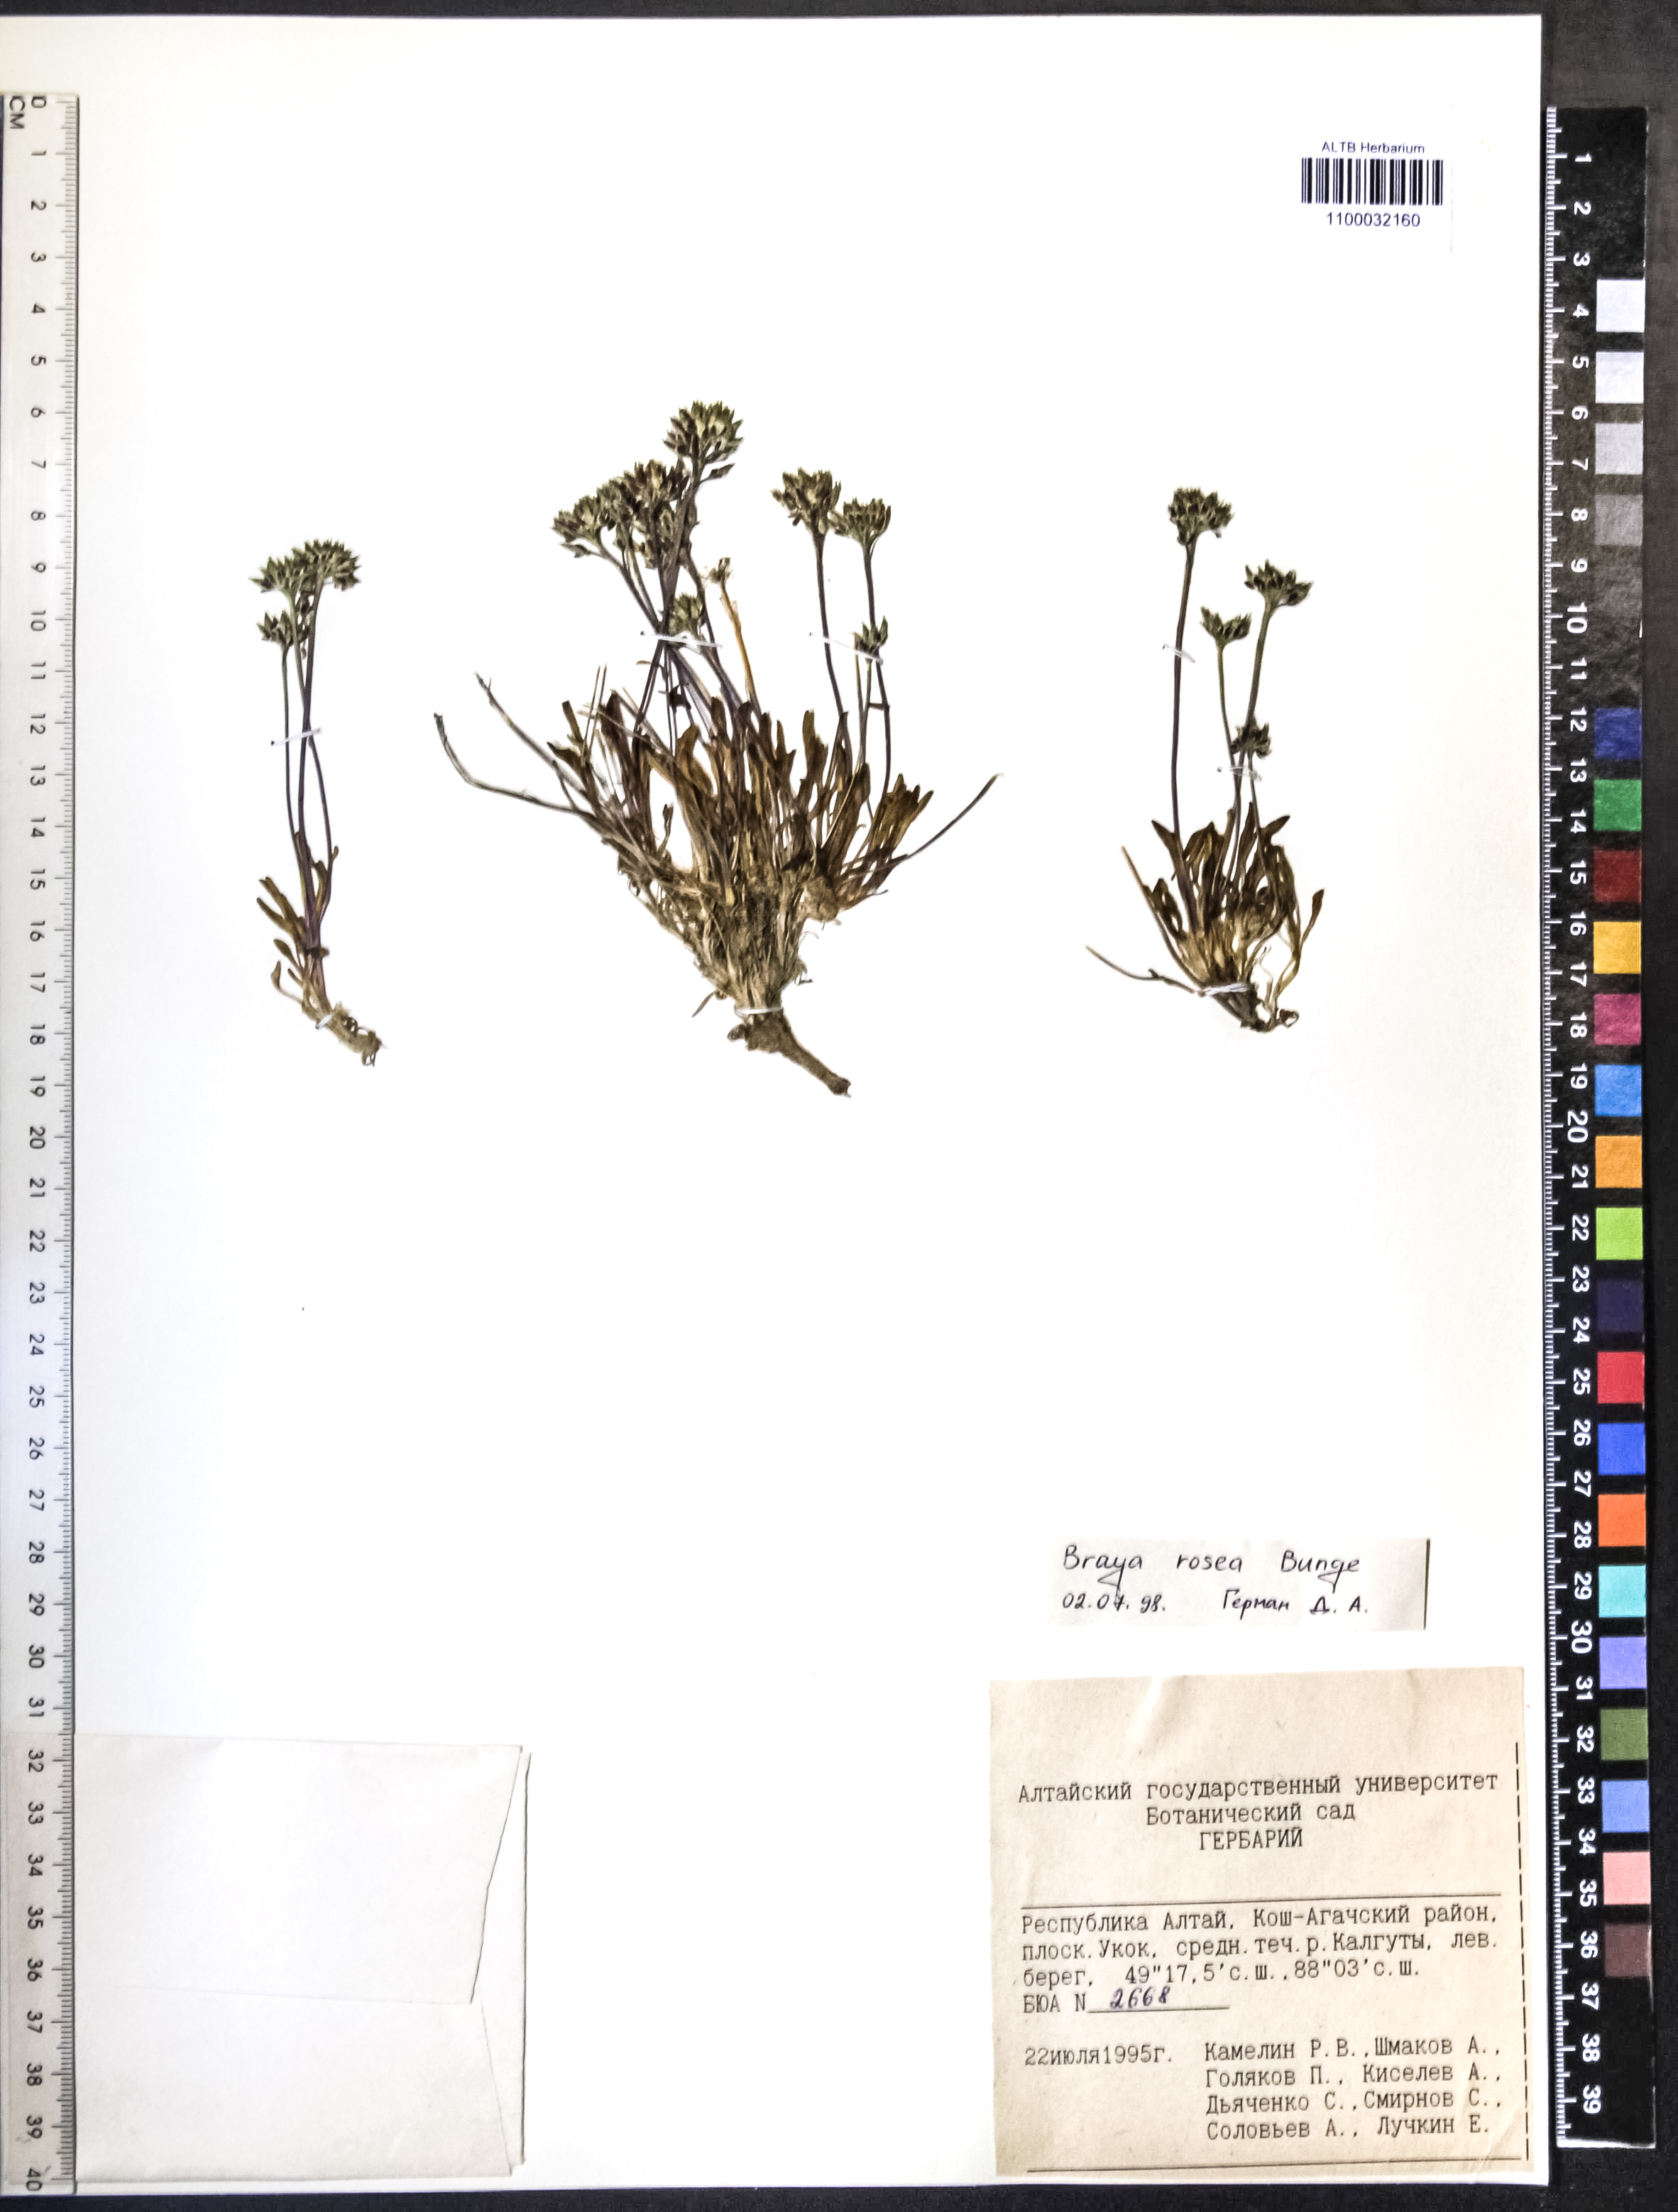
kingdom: Plantae
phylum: Tracheophyta
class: Magnoliopsida
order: Brassicales
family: Brassicaceae
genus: Braya
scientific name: Braya rosea
